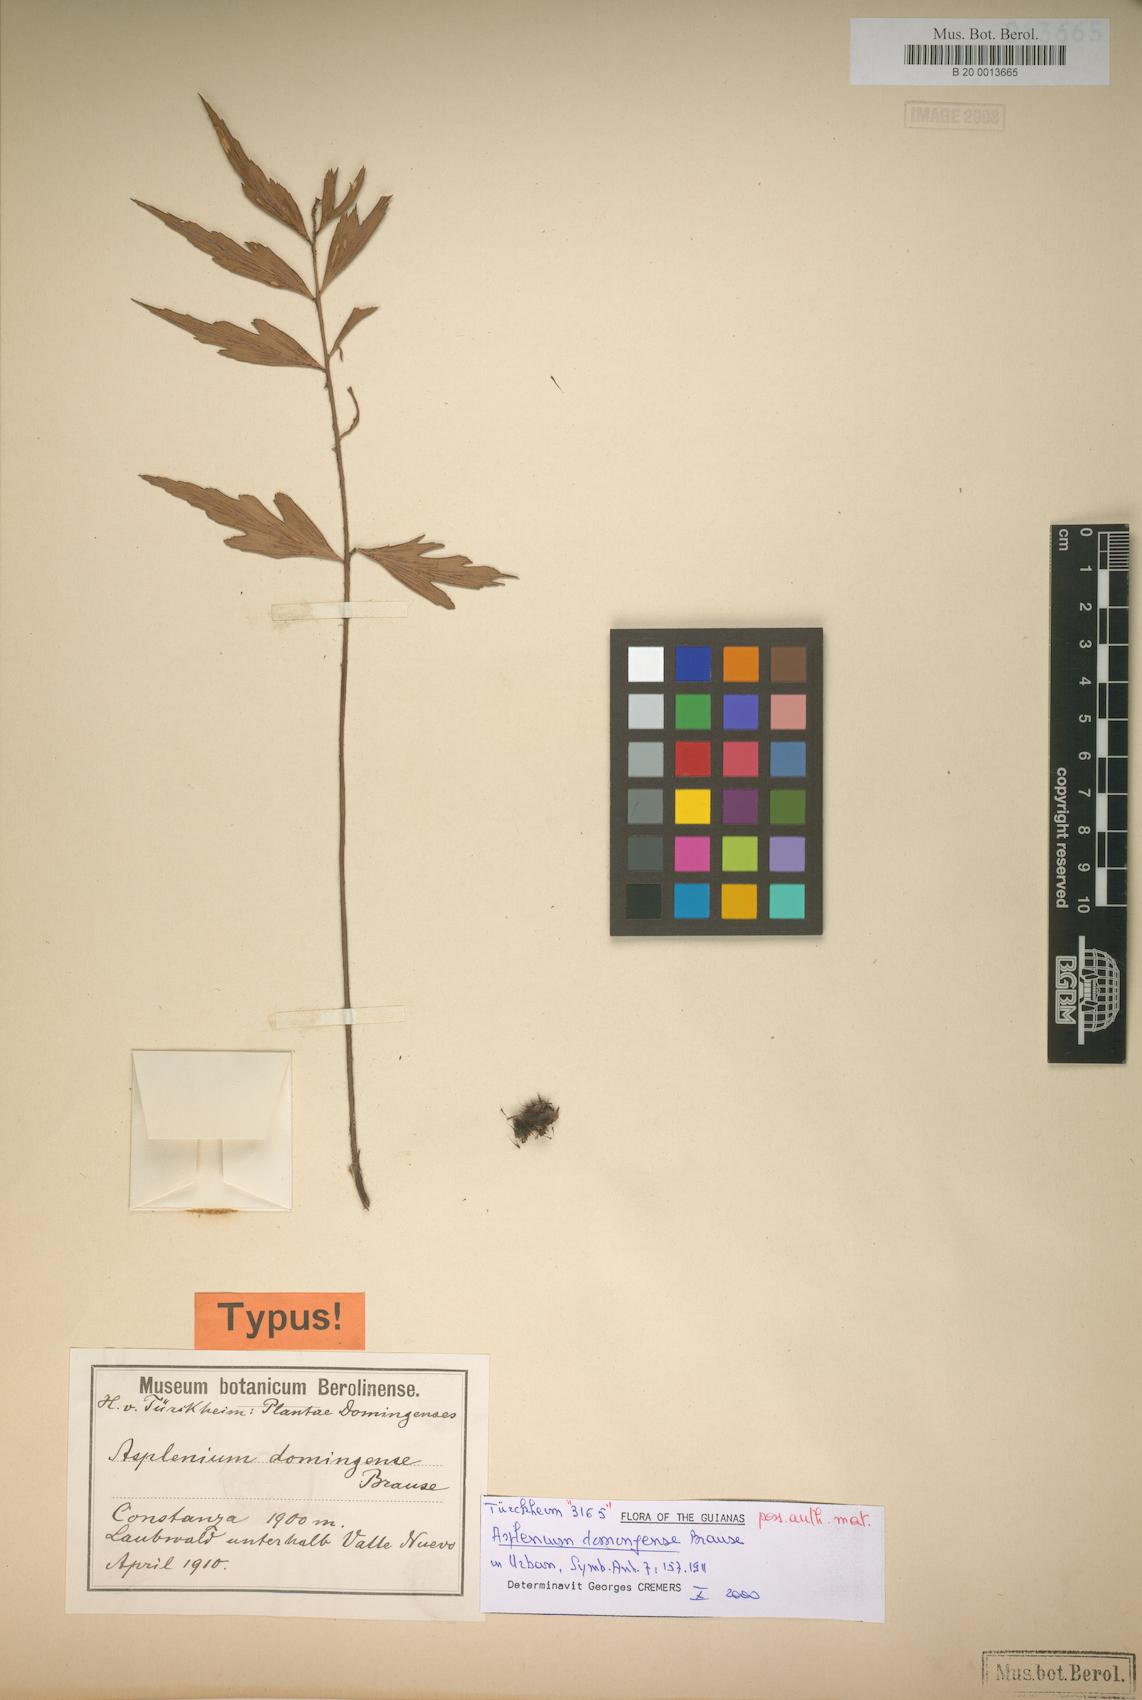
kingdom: Plantae
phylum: Tracheophyta
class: Polypodiopsida
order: Polypodiales
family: Aspleniaceae
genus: Asplenium
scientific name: Asplenium domingense
